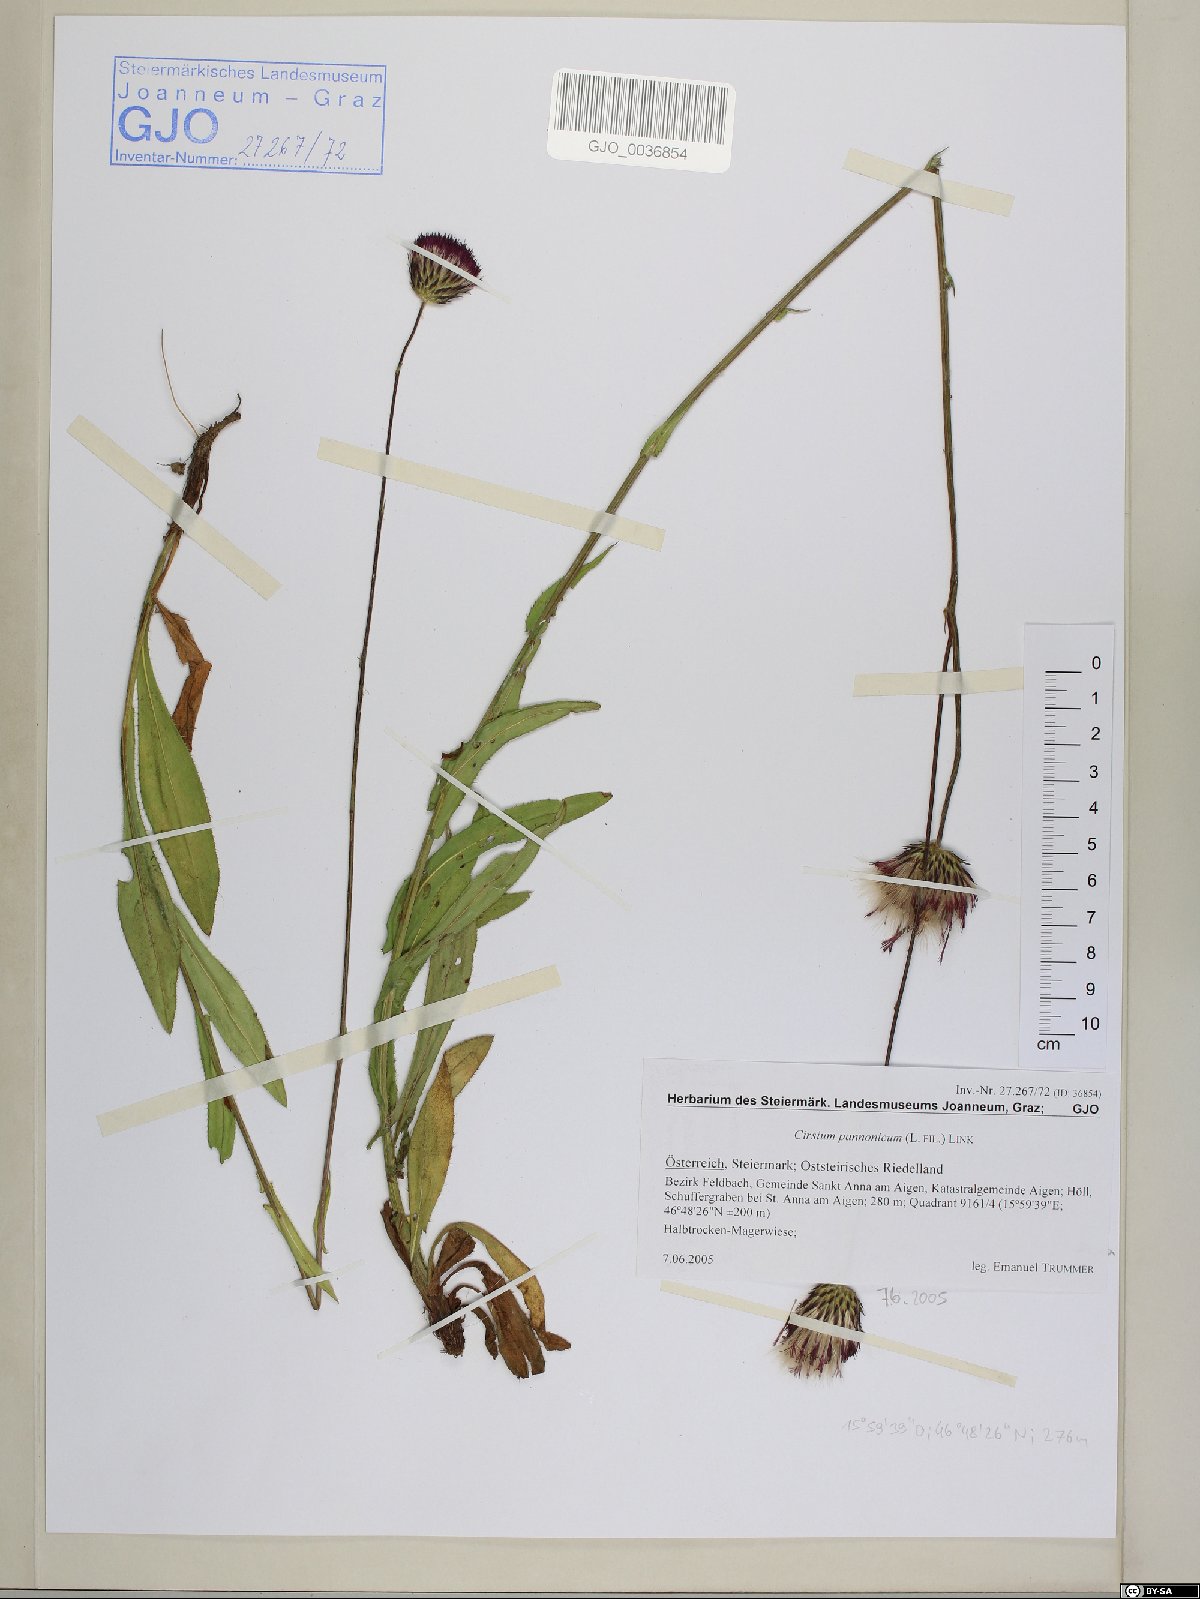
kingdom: Plantae
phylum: Tracheophyta
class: Magnoliopsida
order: Asterales
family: Asteraceae
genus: Cirsium
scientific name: Cirsium pannonicum
